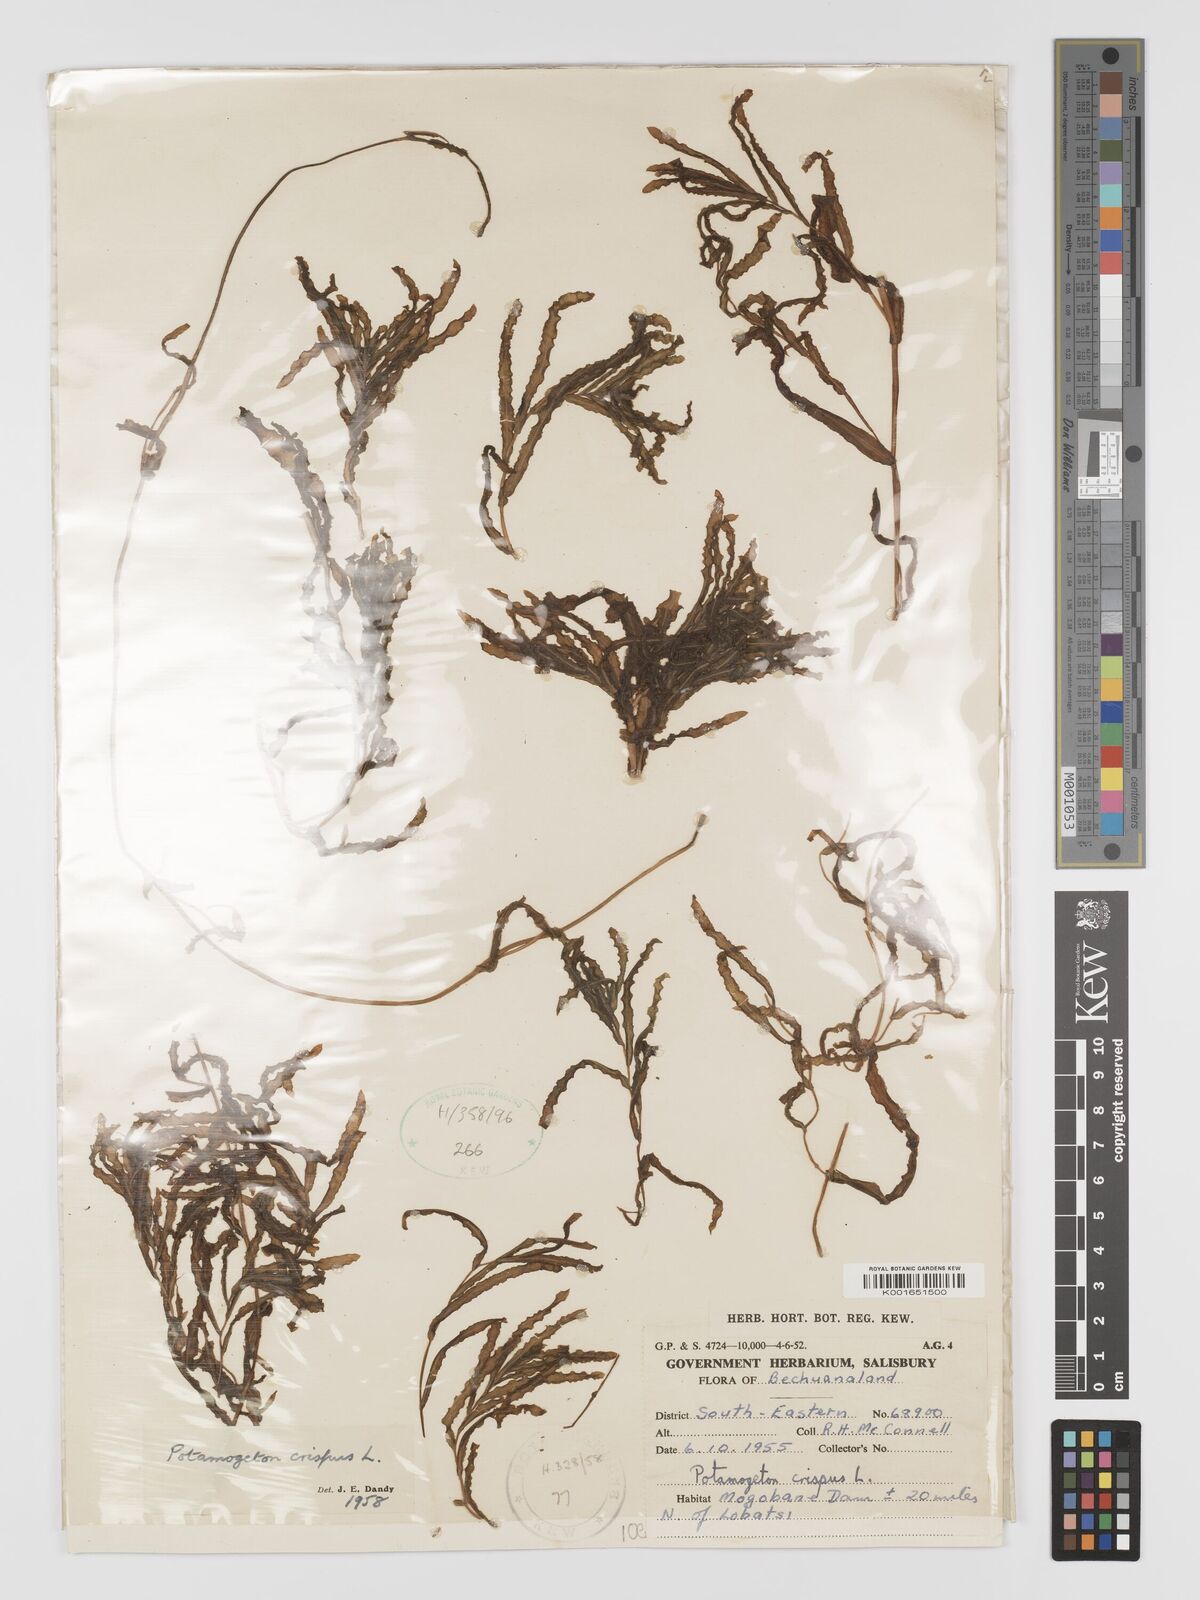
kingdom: Plantae
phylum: Tracheophyta
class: Liliopsida
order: Alismatales
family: Potamogetonaceae
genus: Potamogeton
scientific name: Potamogeton crispus
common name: Curled pondweed
